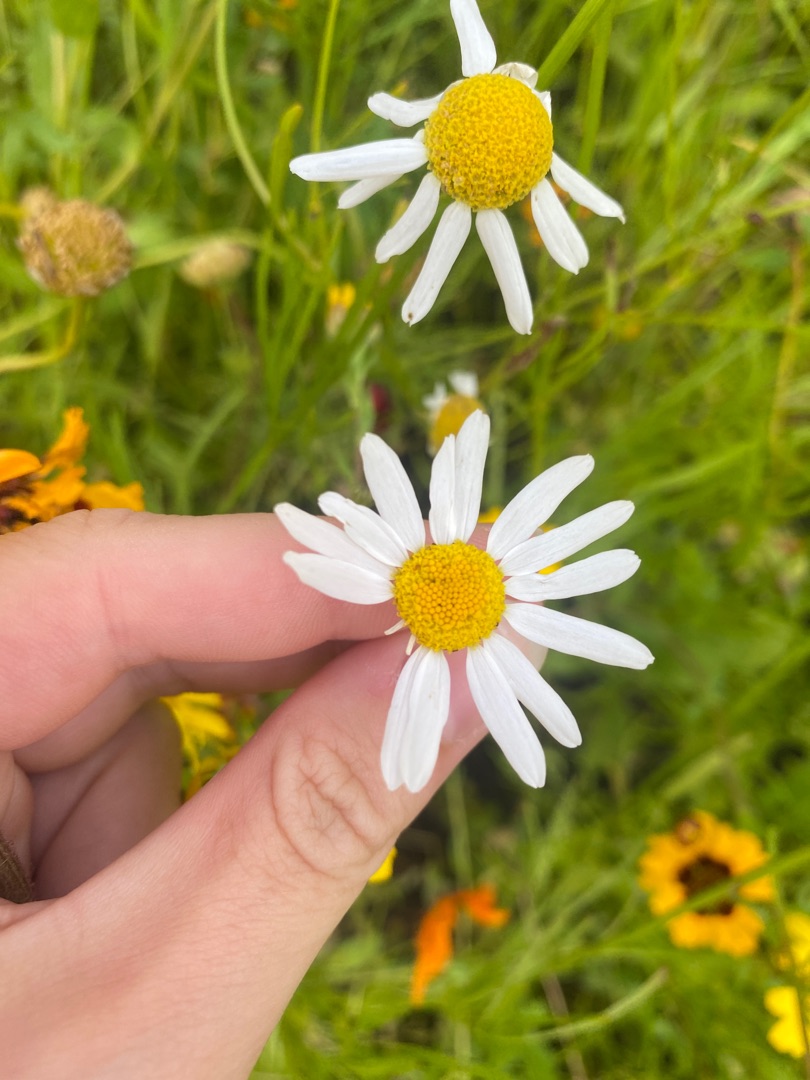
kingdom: Plantae
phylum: Tracheophyta
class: Magnoliopsida
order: Asterales
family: Asteraceae
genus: Tripleurospermum
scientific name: Tripleurospermum inodorum
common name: Lugtløs kamille
